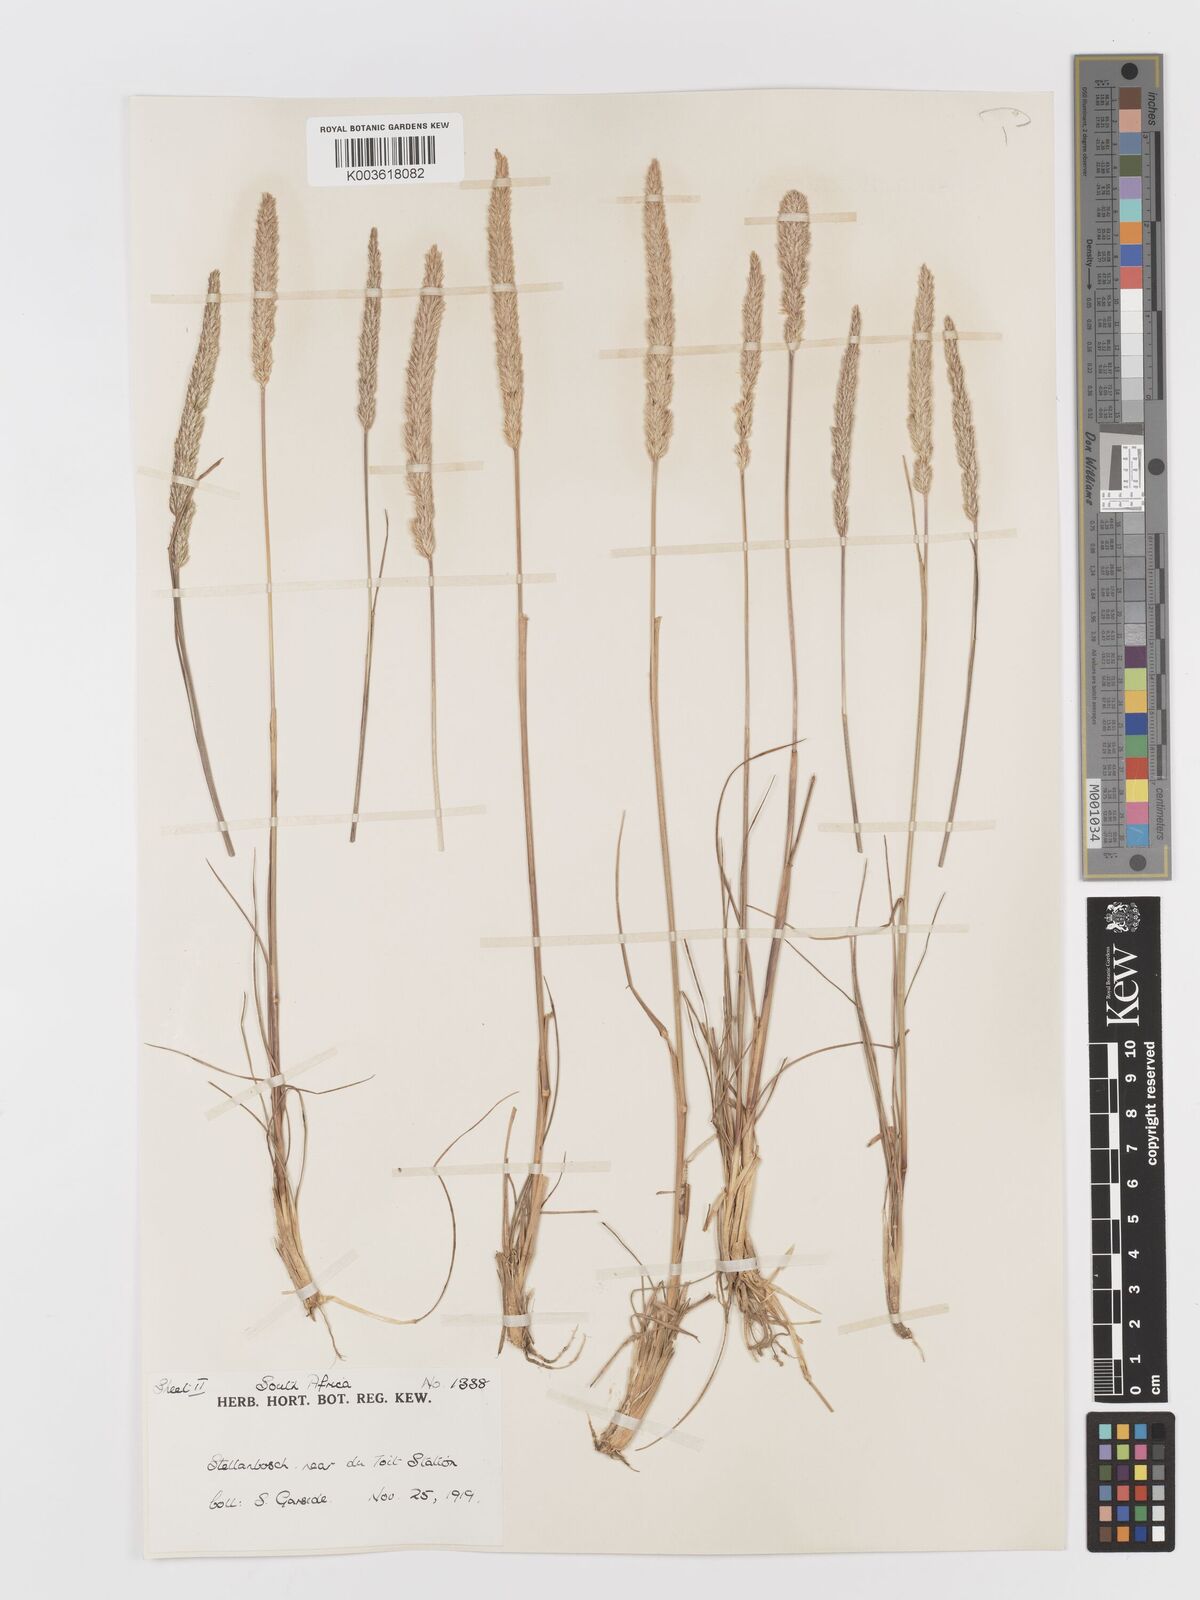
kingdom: Plantae
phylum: Tracheophyta
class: Liliopsida
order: Poales
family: Poaceae
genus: Koeleria
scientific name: Koeleria capensis
